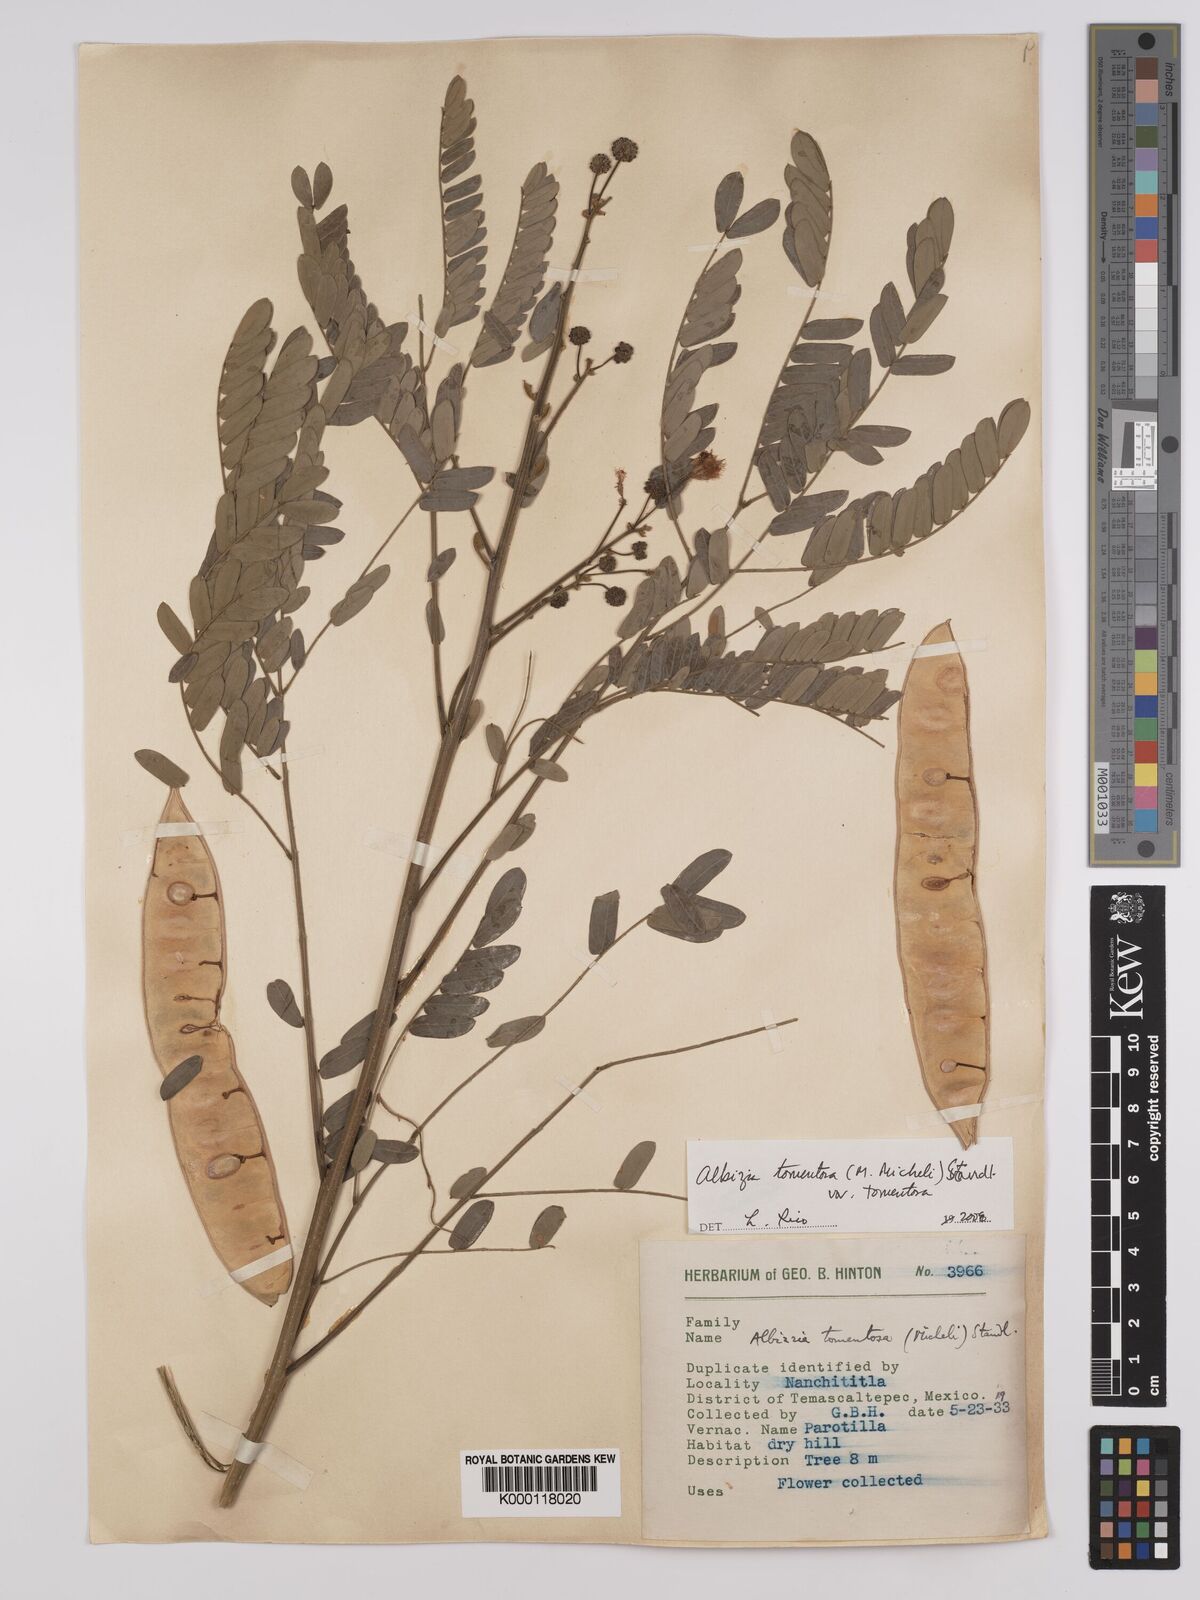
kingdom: Plantae
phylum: Tracheophyta
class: Magnoliopsida
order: Fabales
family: Fabaceae
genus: Albizia
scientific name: Albizia tomentosa
